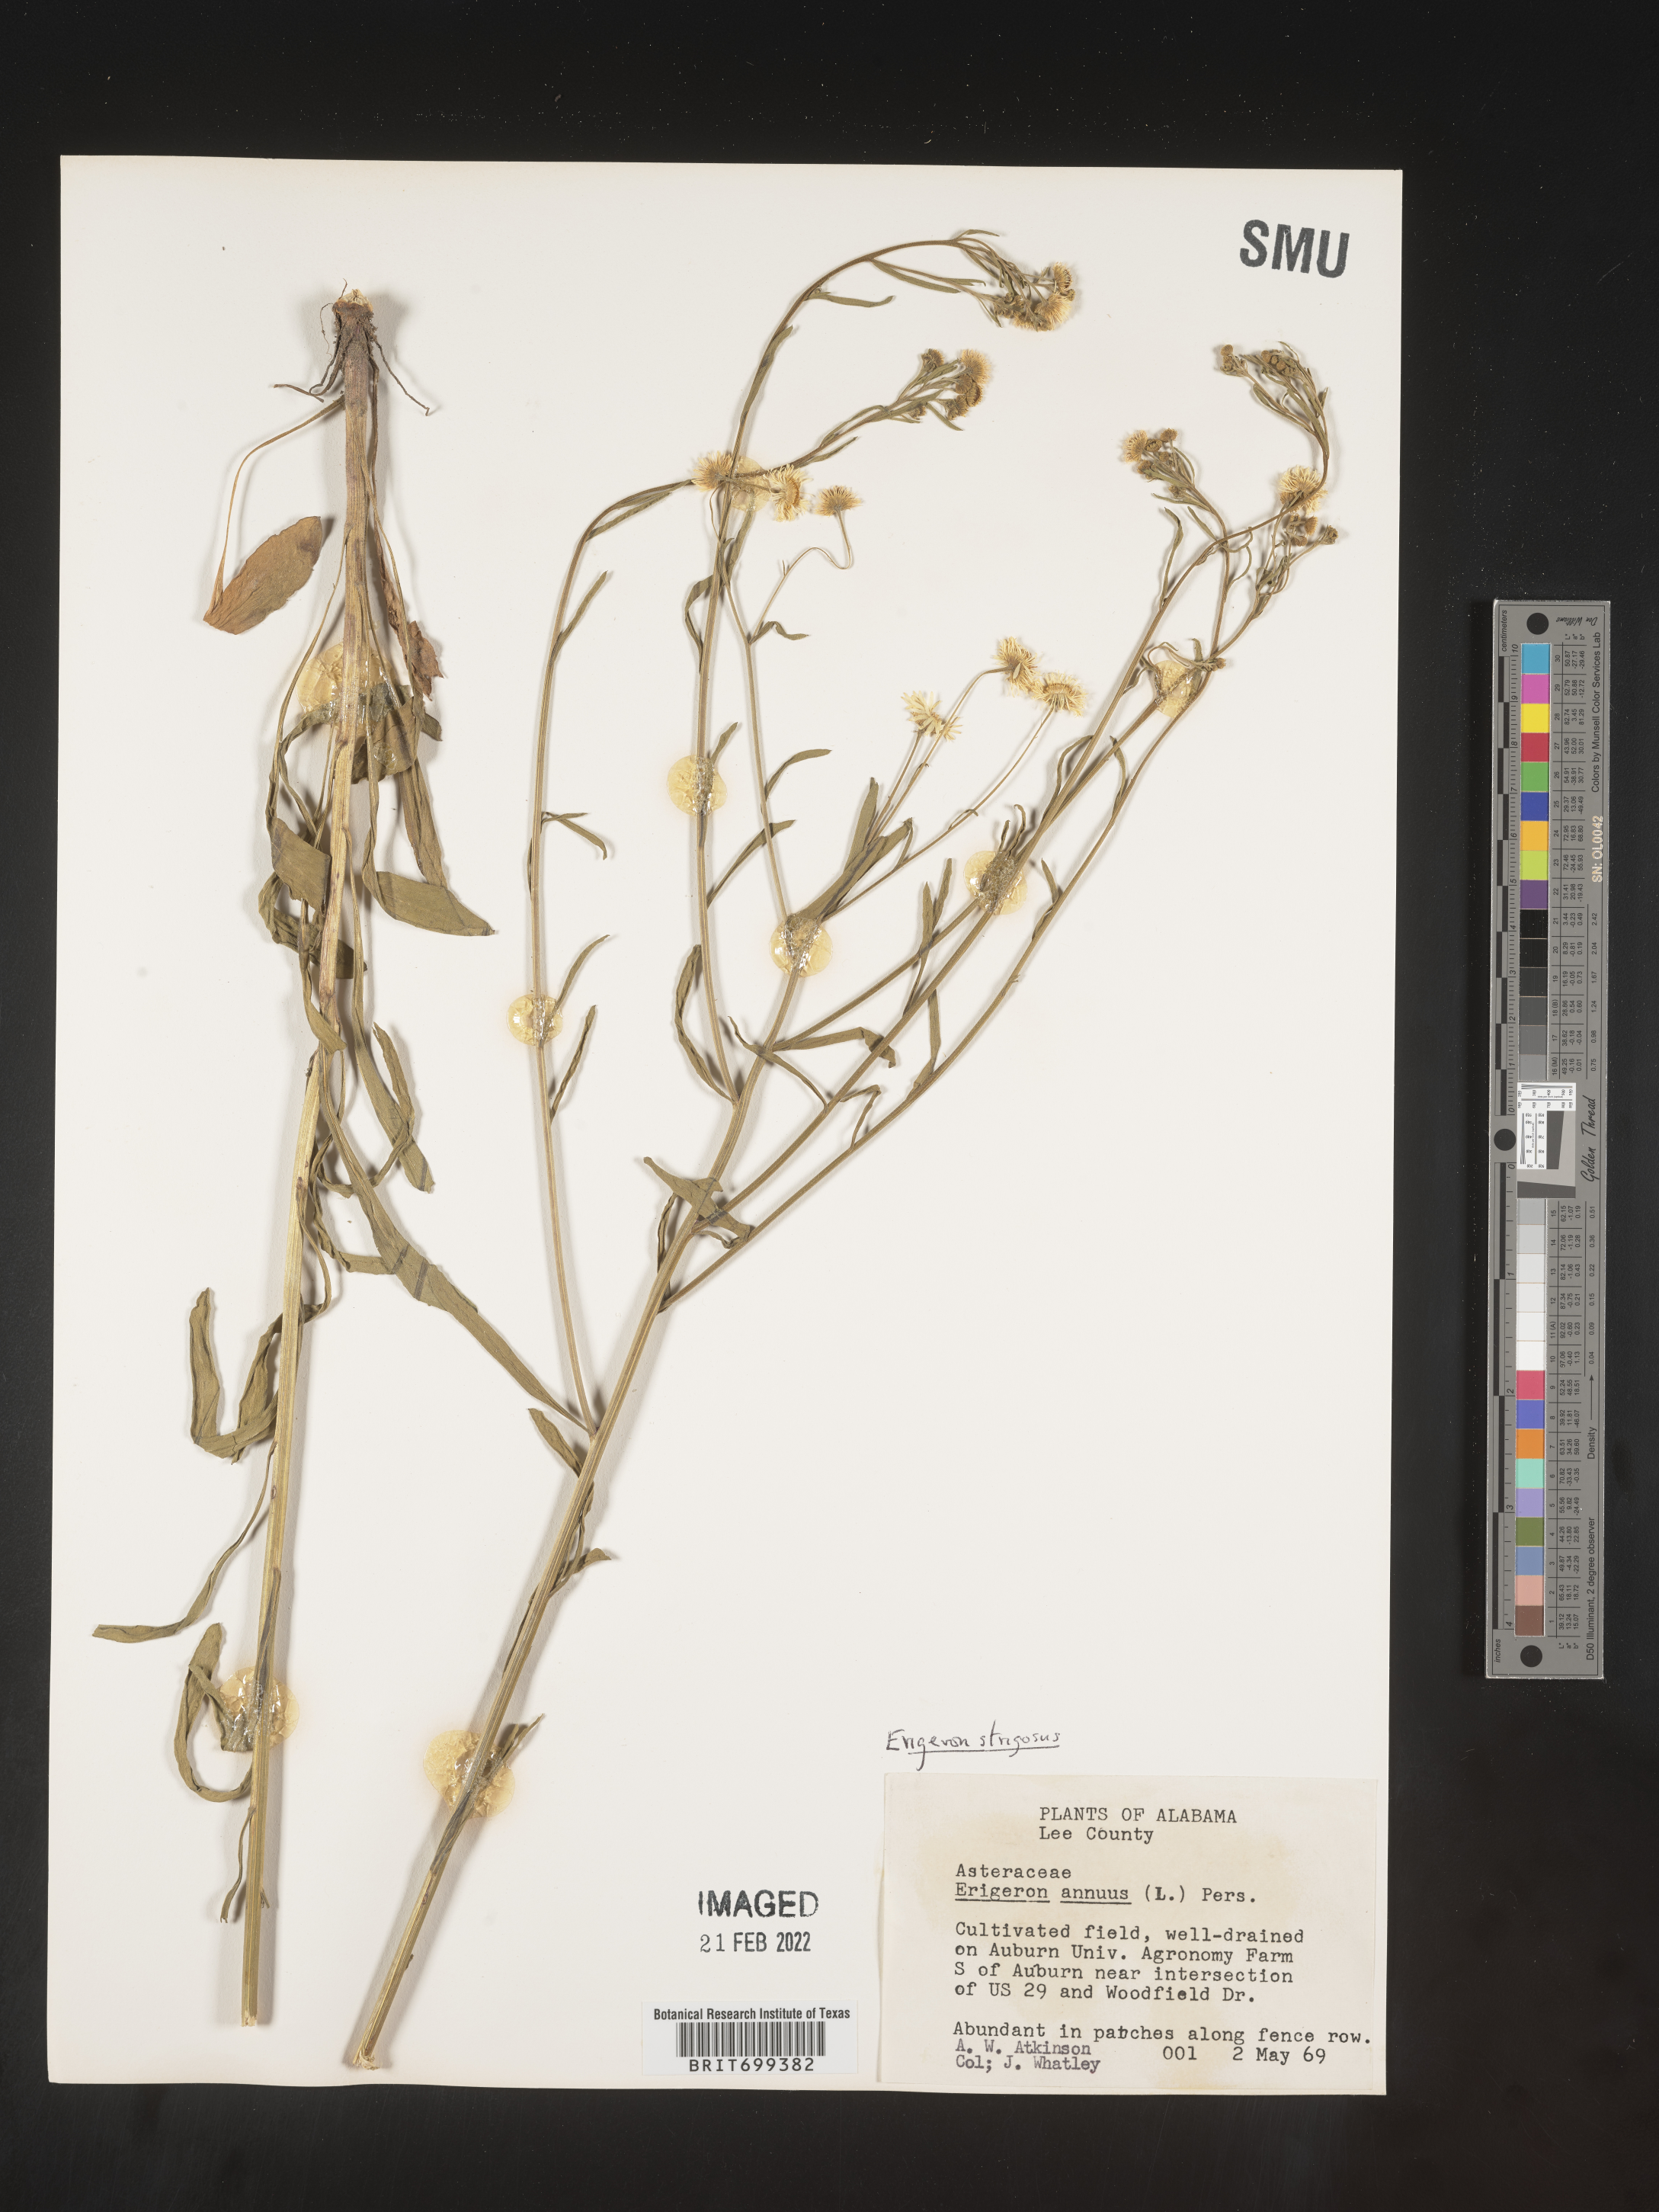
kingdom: Plantae
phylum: Tracheophyta
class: Magnoliopsida
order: Asterales
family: Asteraceae
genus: Erigeron
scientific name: Erigeron strigosus
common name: Common eastern fleabane
